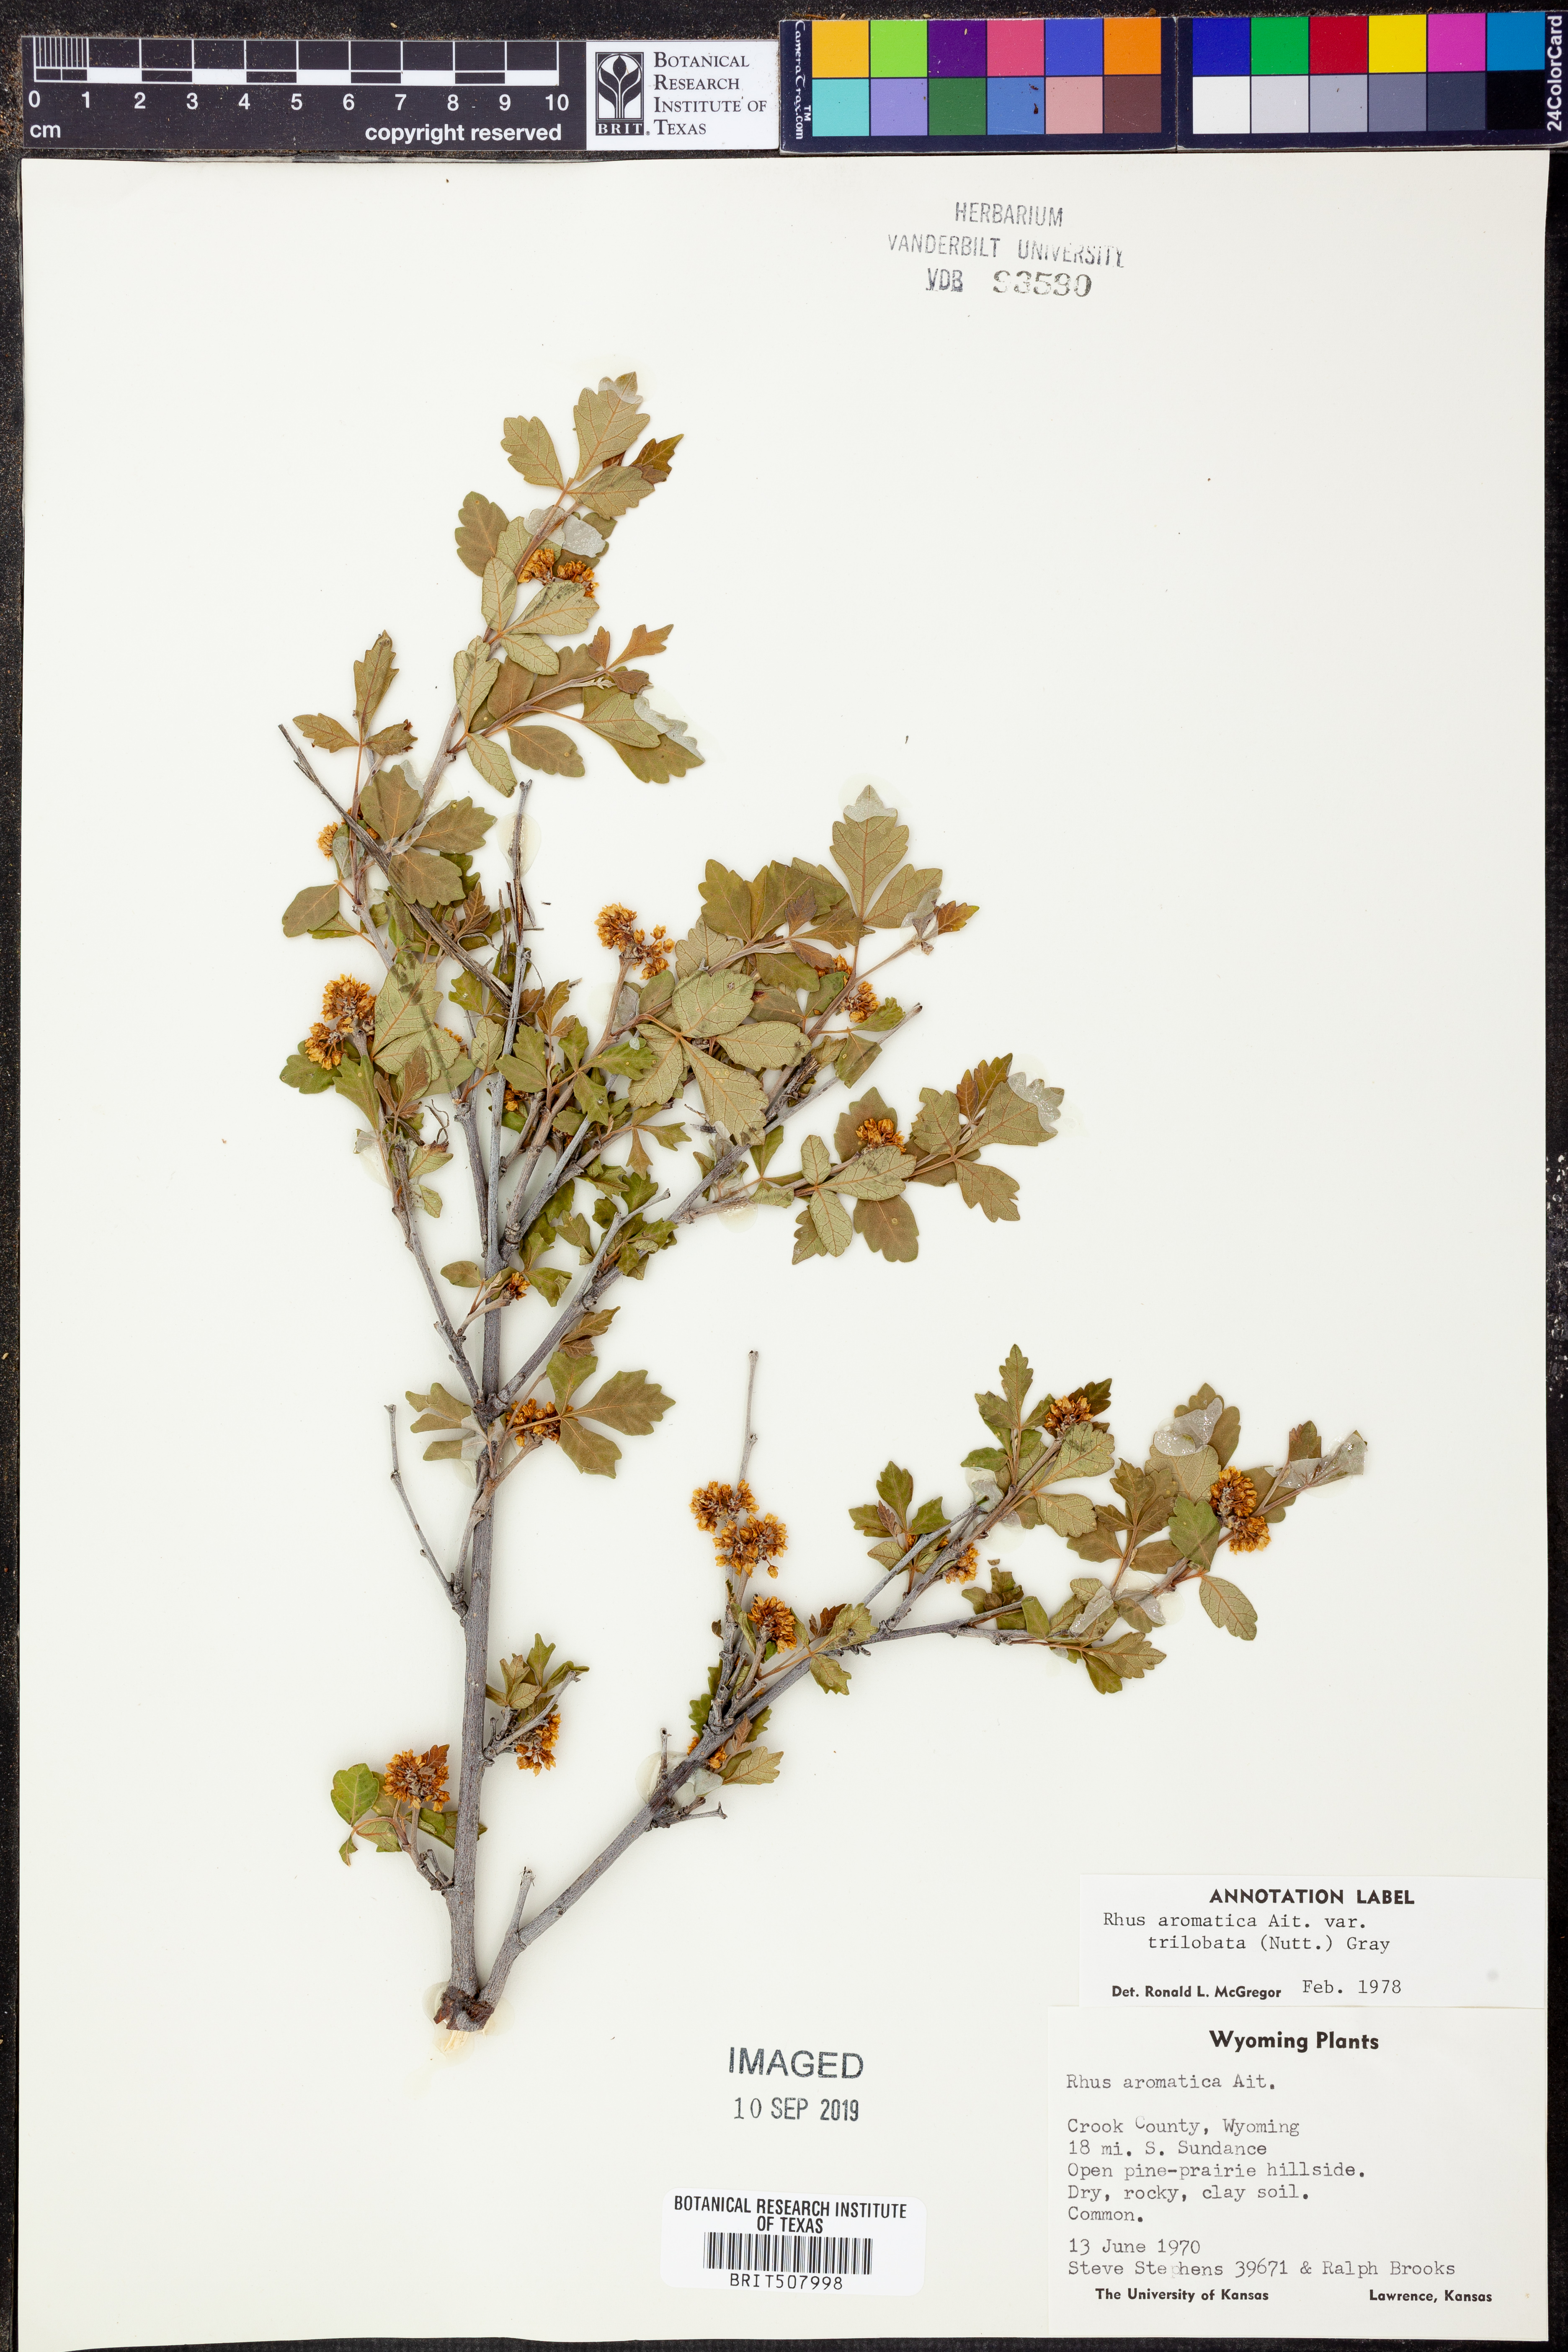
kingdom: Plantae
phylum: Tracheophyta
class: Magnoliopsida
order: Sapindales
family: Anacardiaceae
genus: Rhus
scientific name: Rhus trilobata
